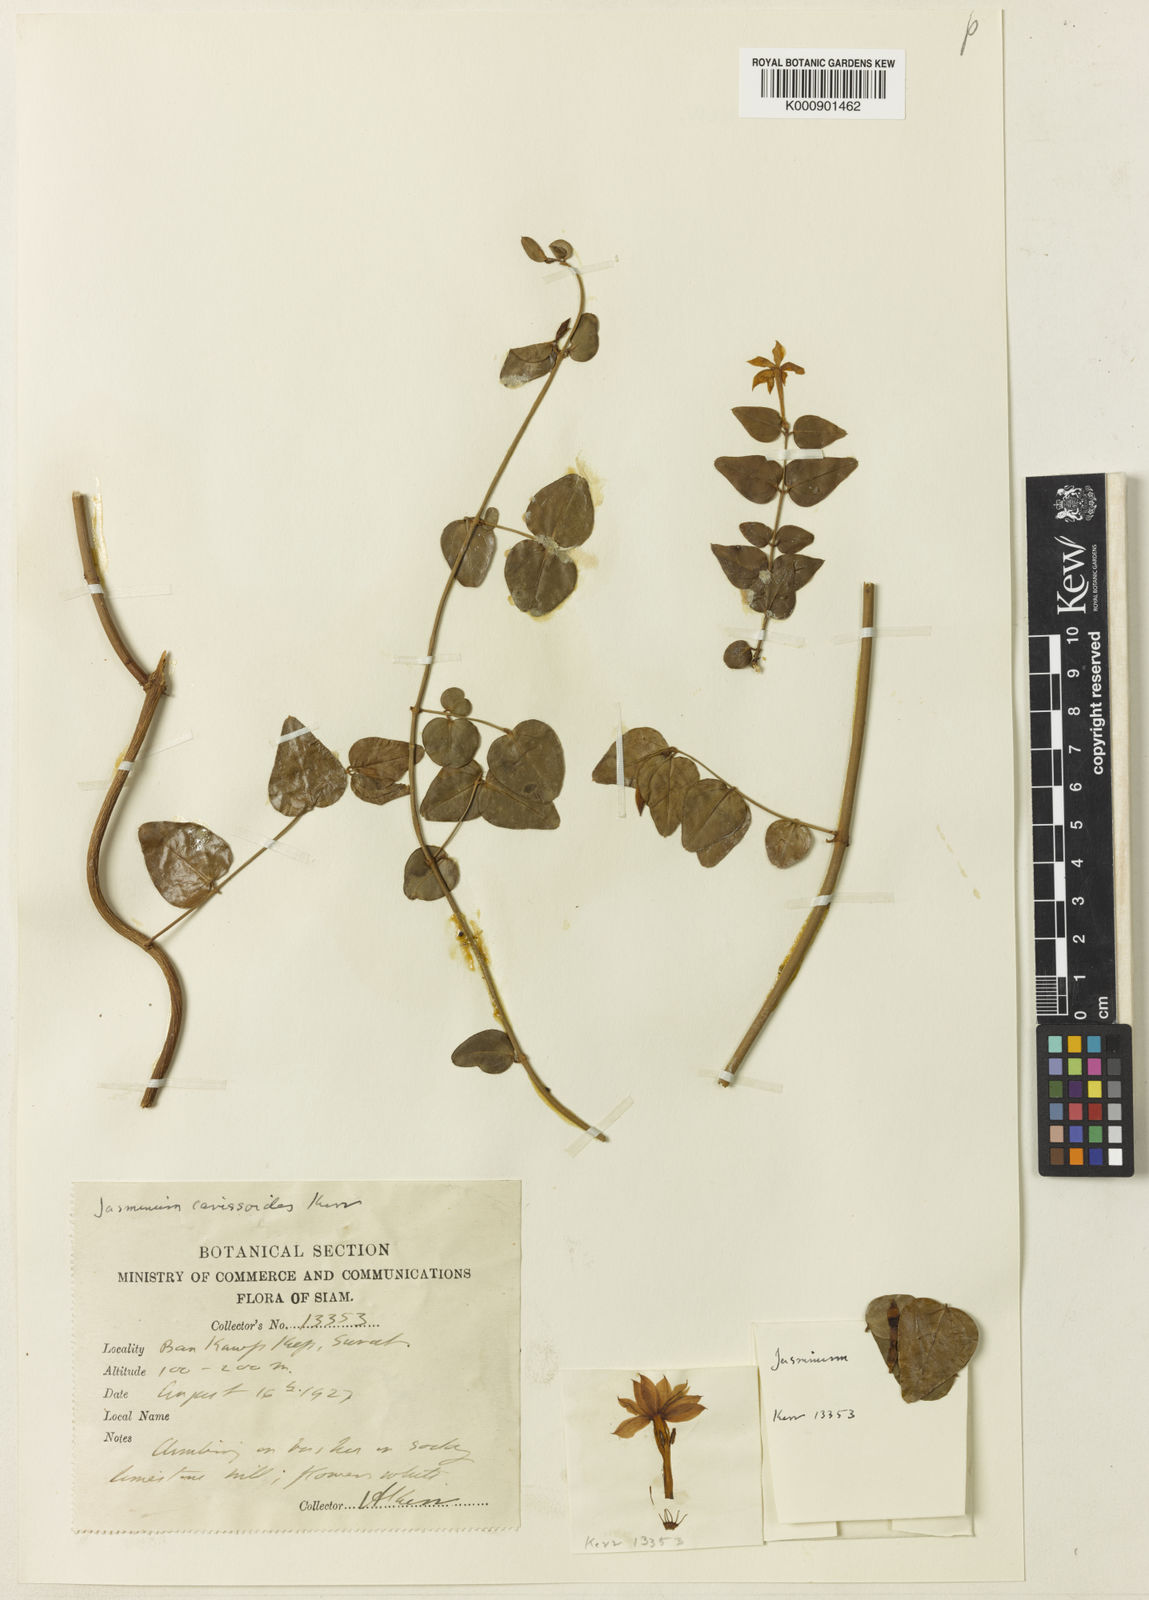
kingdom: Plantae
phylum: Tracheophyta
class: Magnoliopsida
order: Lamiales
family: Oleaceae
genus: Jasminum
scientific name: Jasminum carissoides
